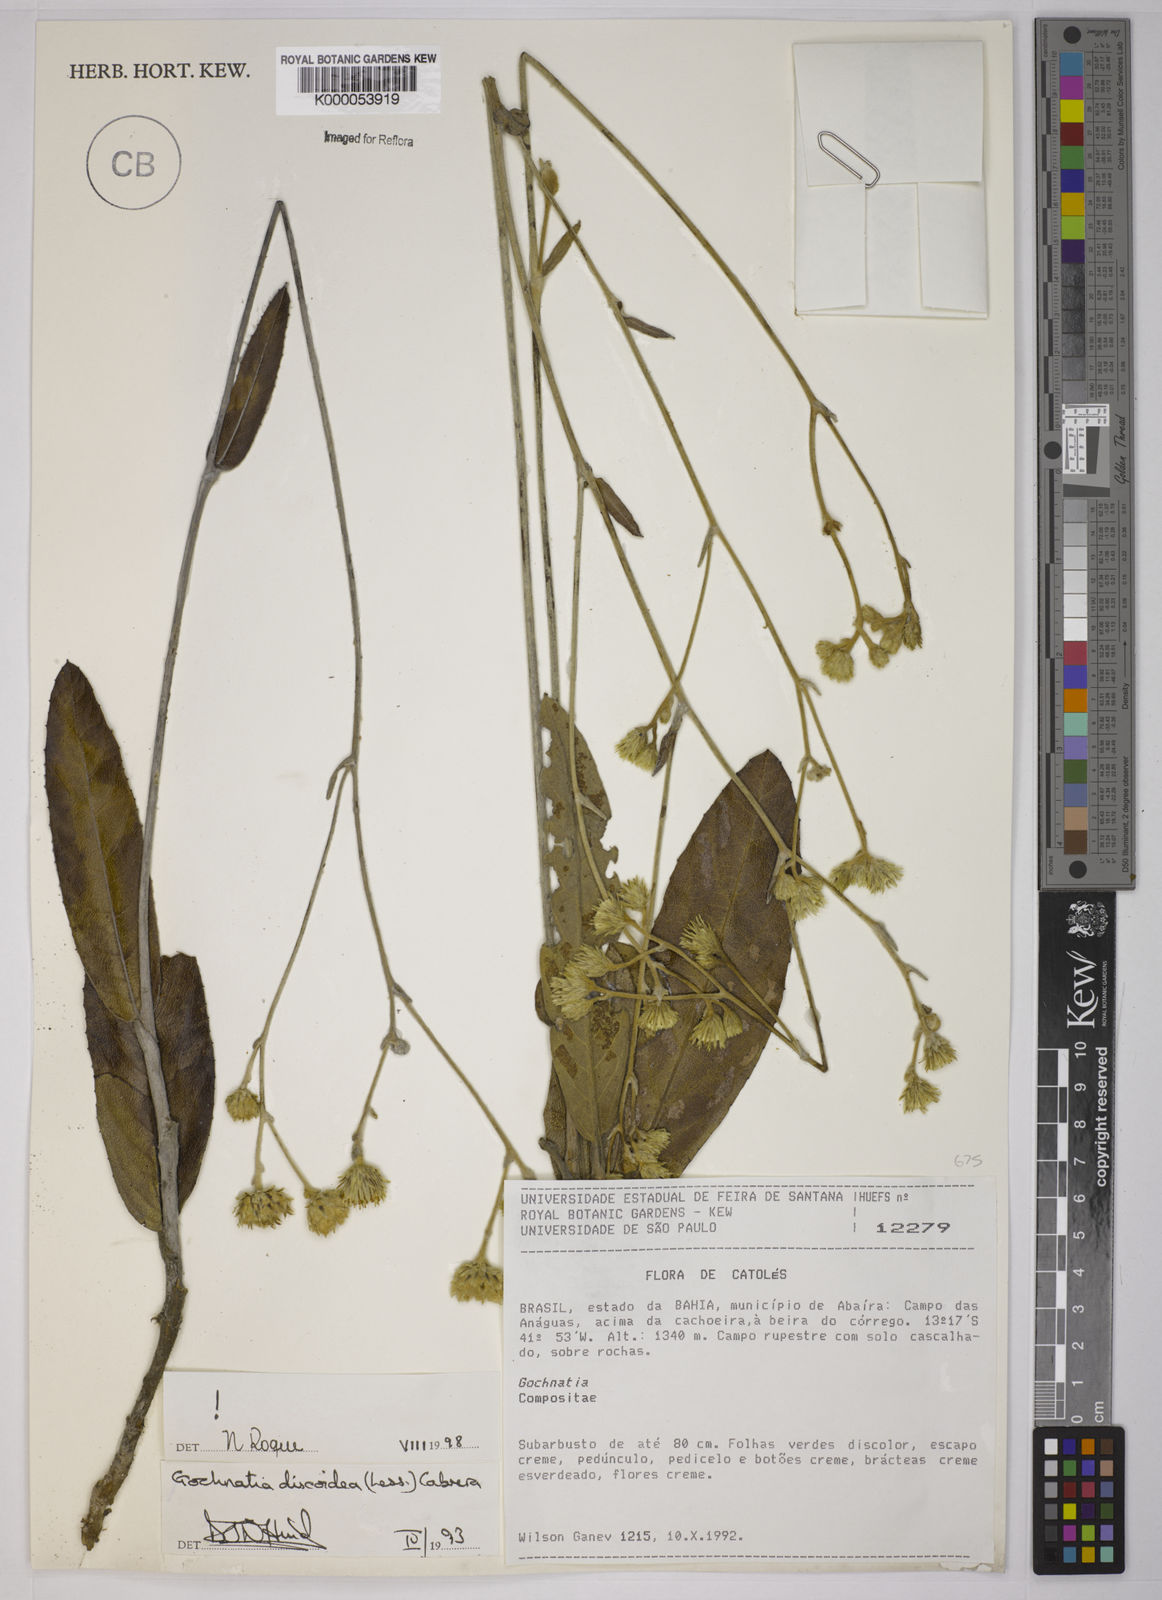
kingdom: Plantae
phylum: Tracheophyta
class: Magnoliopsida
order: Asterales
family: Asteraceae
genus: Richterago
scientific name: Richterago discoidea
